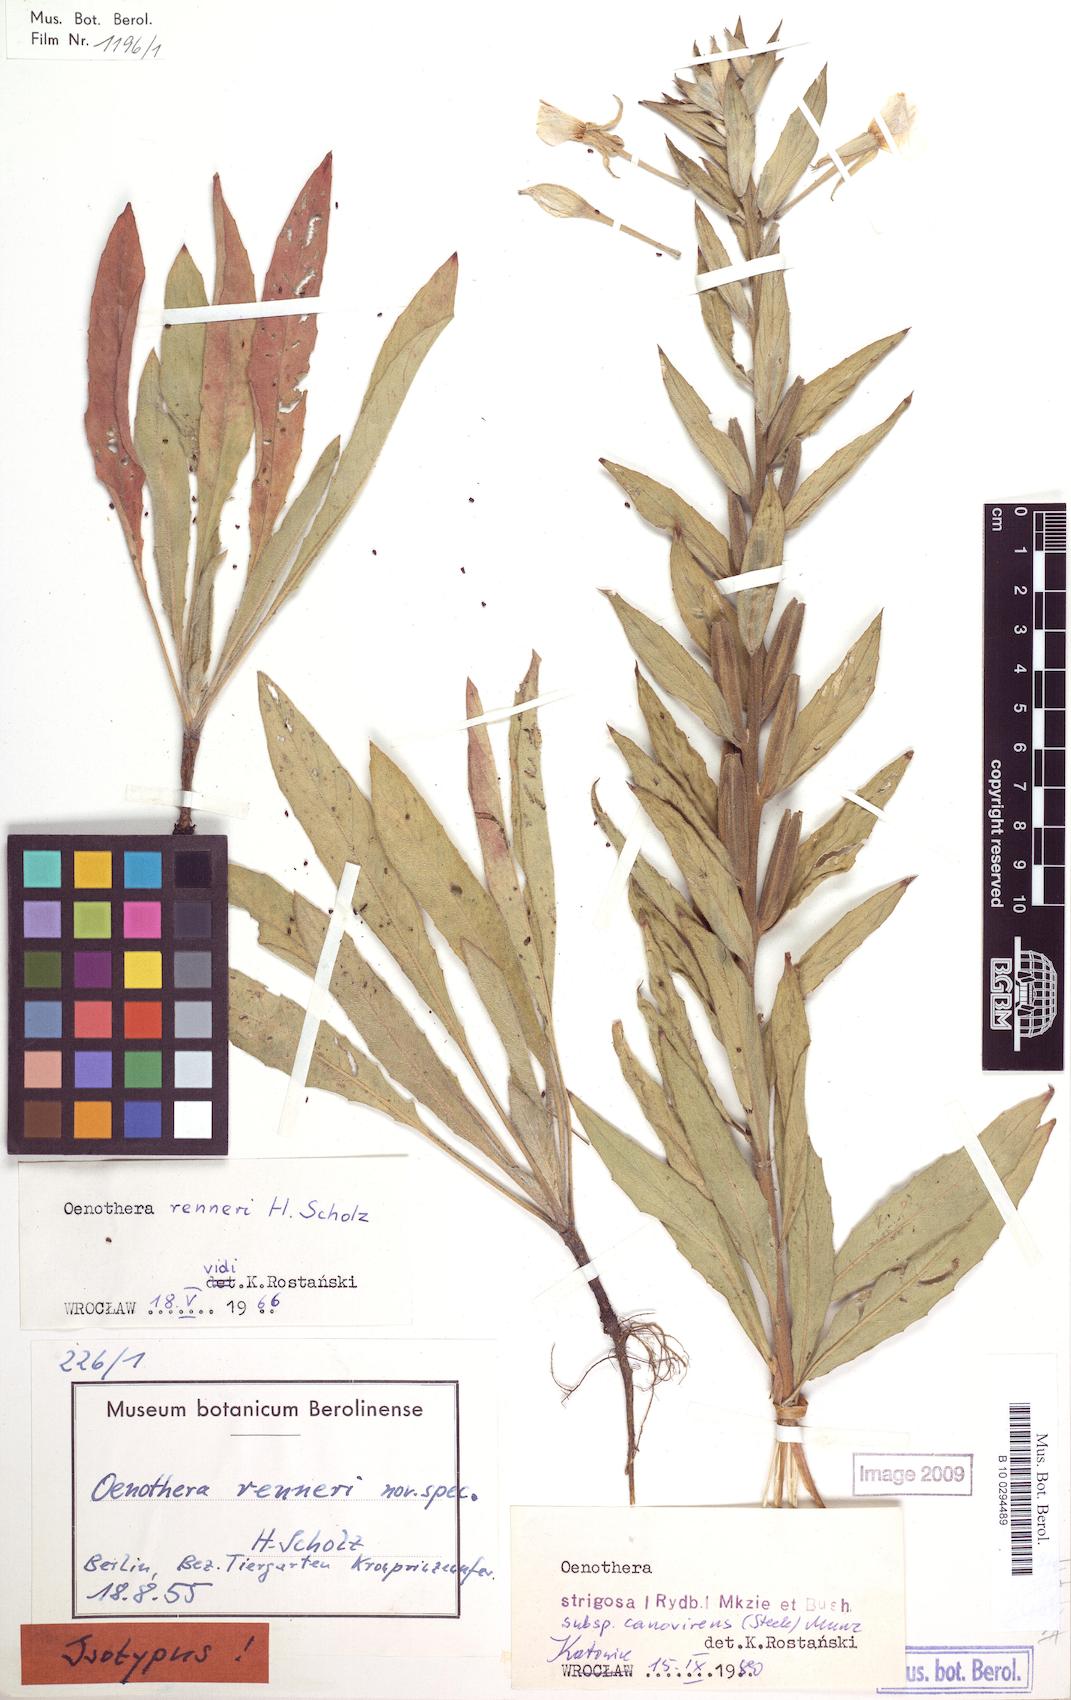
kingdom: Plantae
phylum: Tracheophyta
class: Magnoliopsida
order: Myrtales
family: Onagraceae
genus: Oenothera
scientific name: Oenothera renneri
